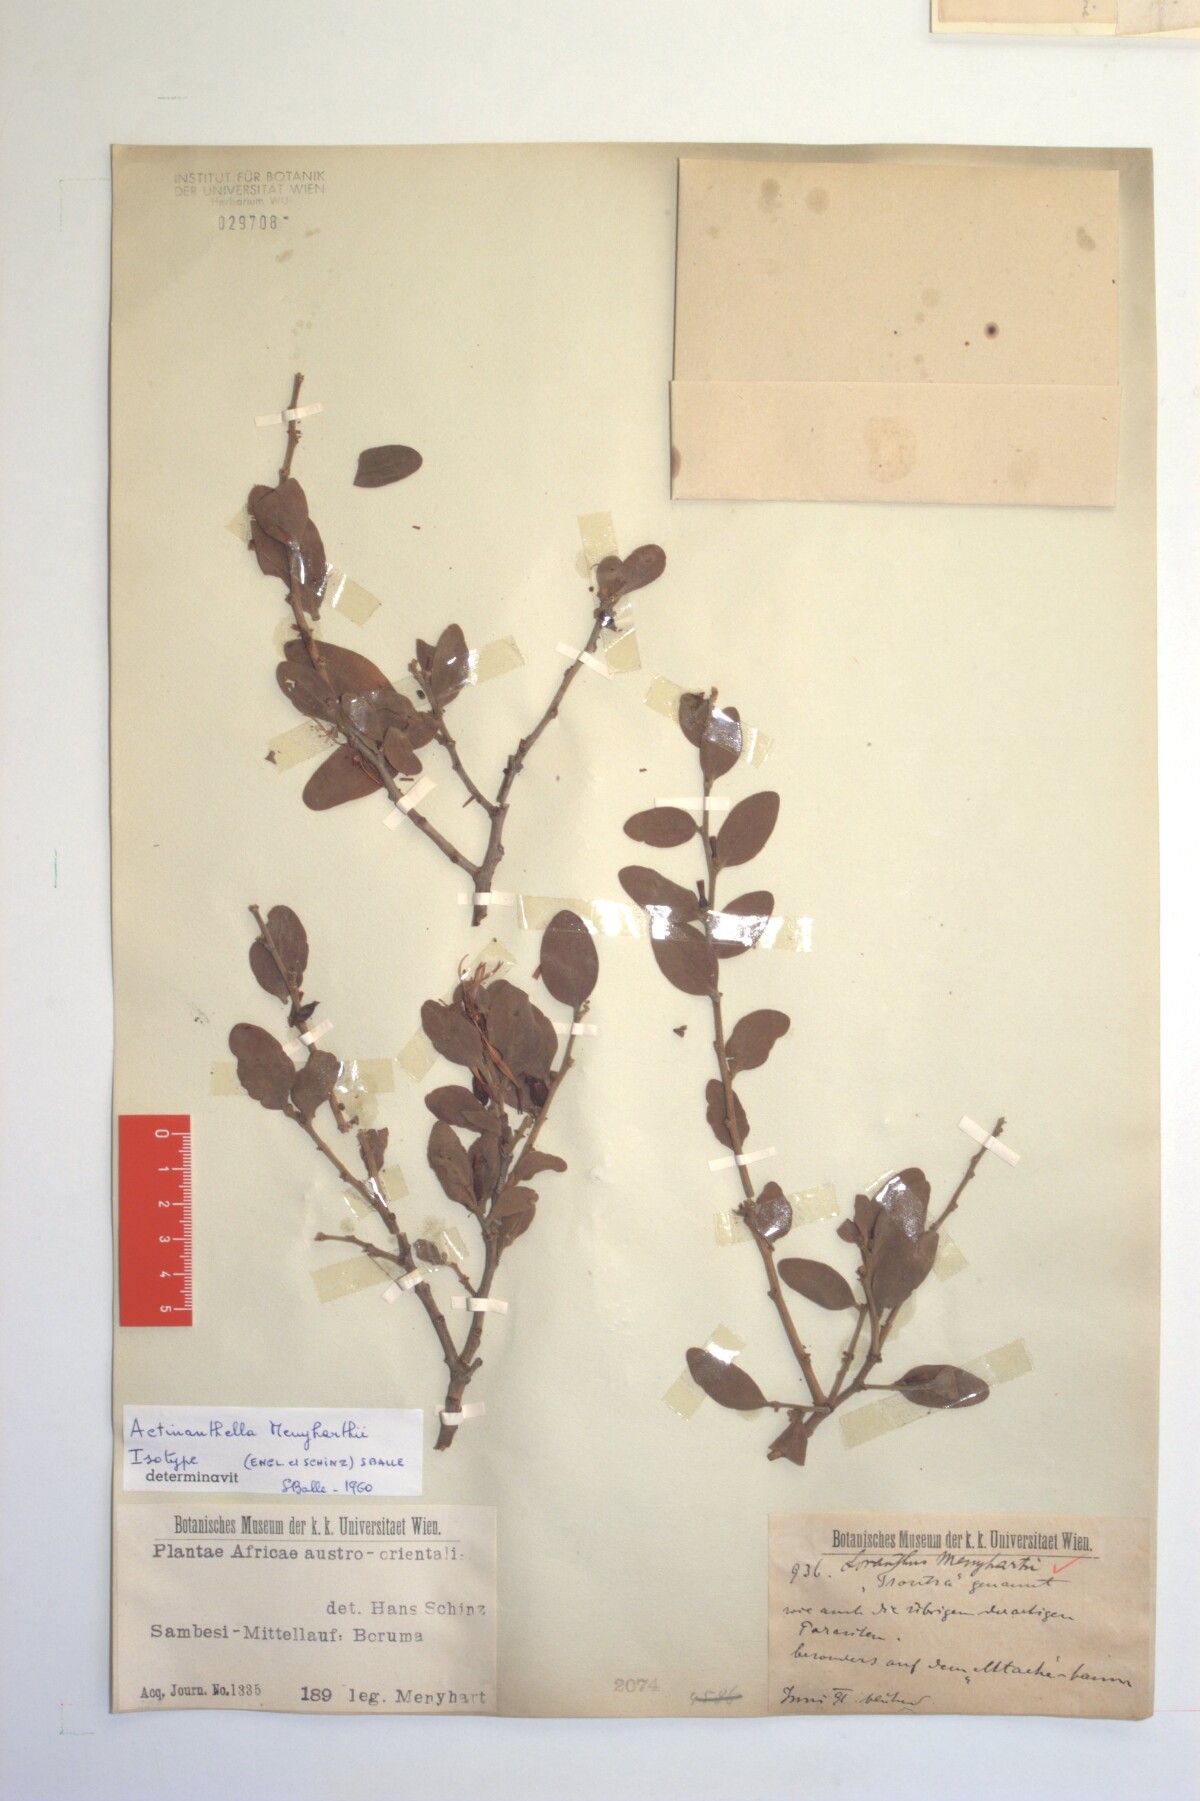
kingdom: Plantae
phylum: Tracheophyta
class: Magnoliopsida
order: Santalales
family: Loranthaceae
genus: Actinanthella
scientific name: Actinanthella menyharthii
